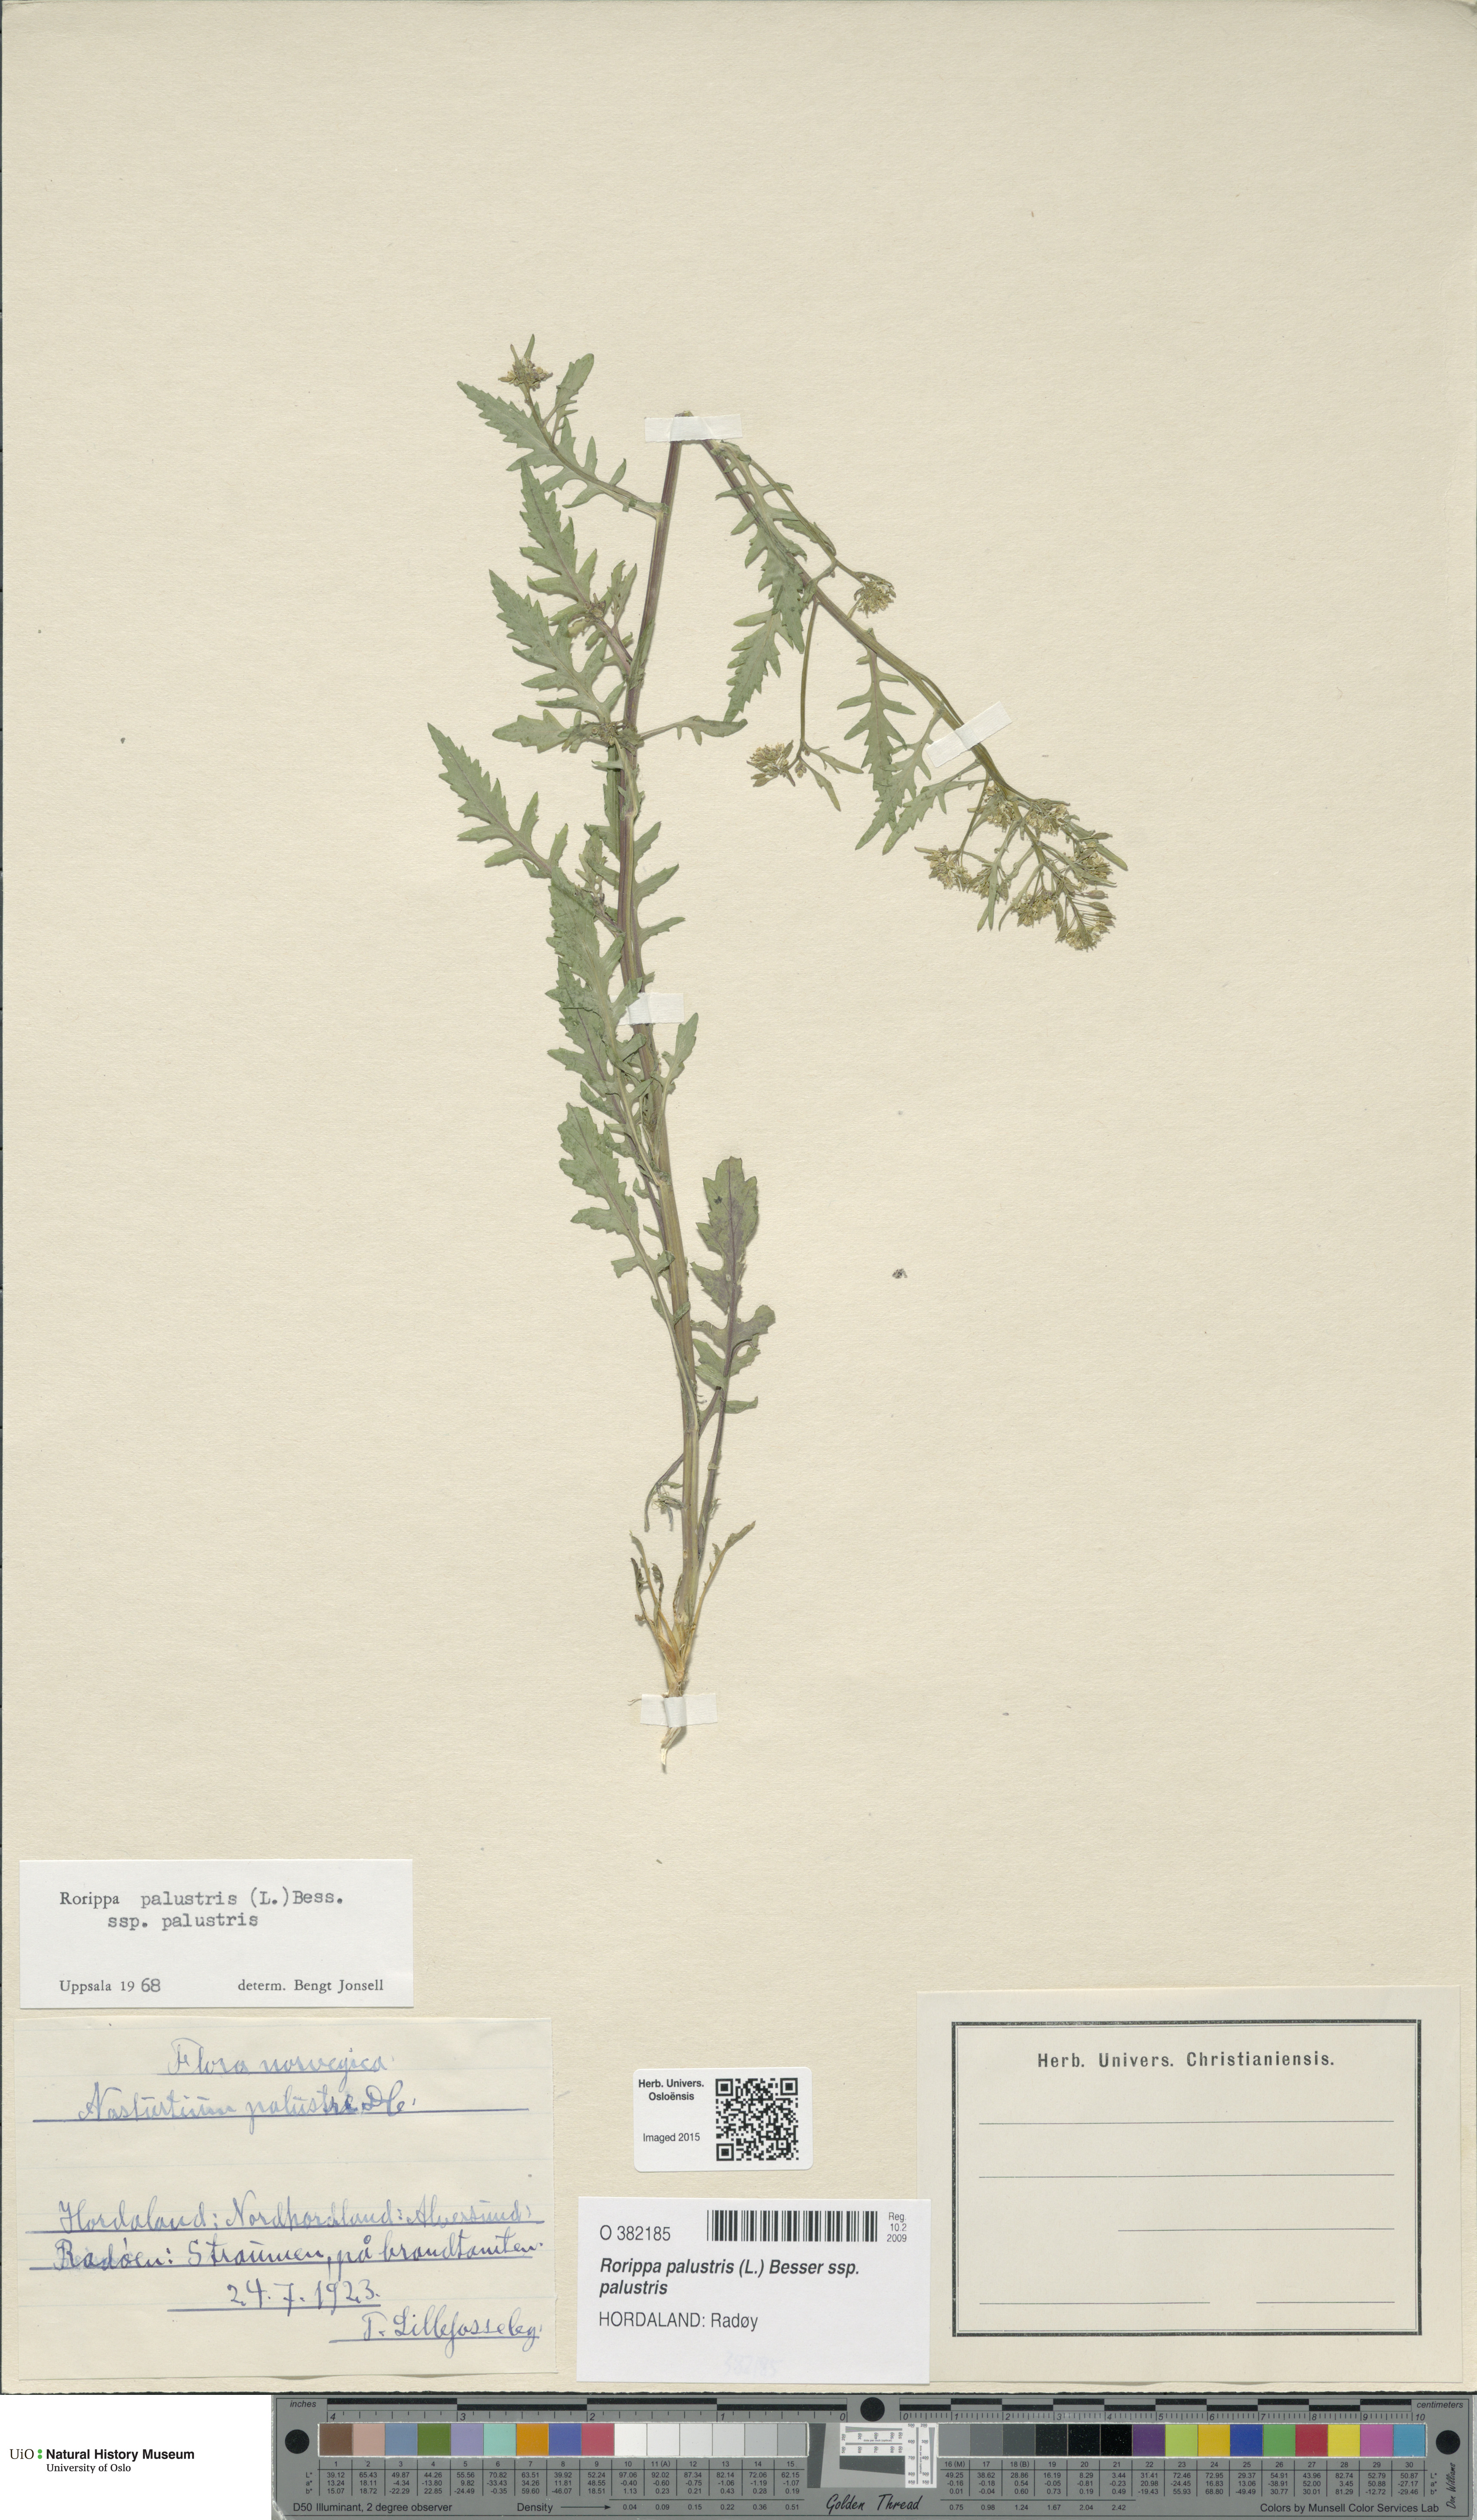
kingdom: Plantae
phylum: Tracheophyta
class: Magnoliopsida
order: Brassicales
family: Brassicaceae
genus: Rorippa
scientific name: Rorippa palustris
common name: Marsh yellow-cress
